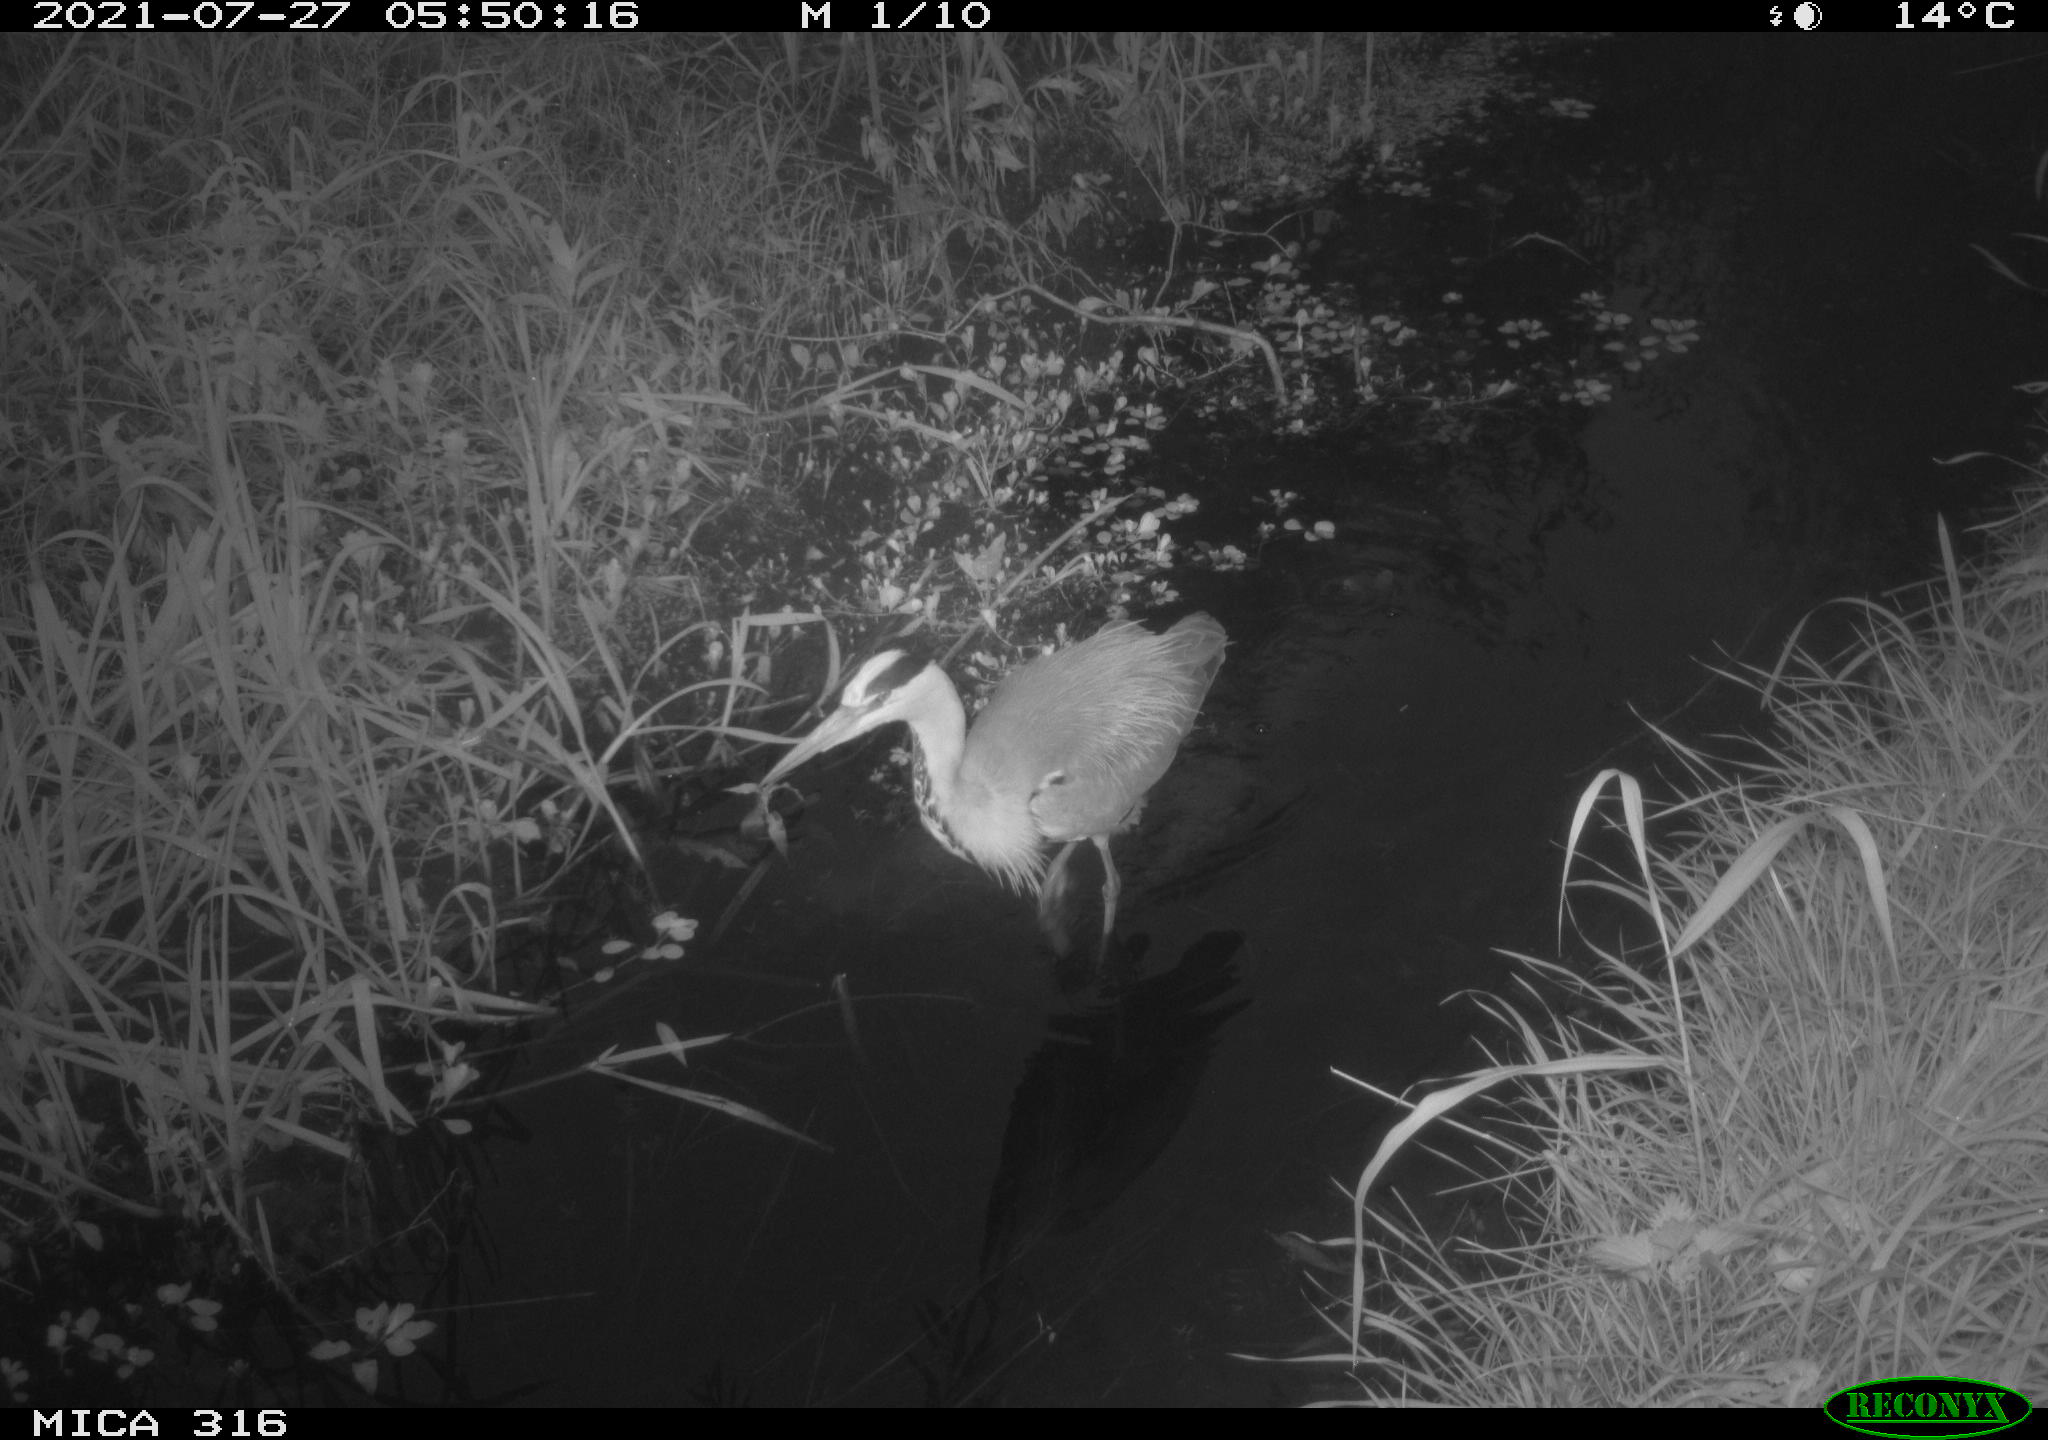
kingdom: Animalia
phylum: Chordata
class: Aves
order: Pelecaniformes
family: Ardeidae
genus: Ardea
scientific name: Ardea
